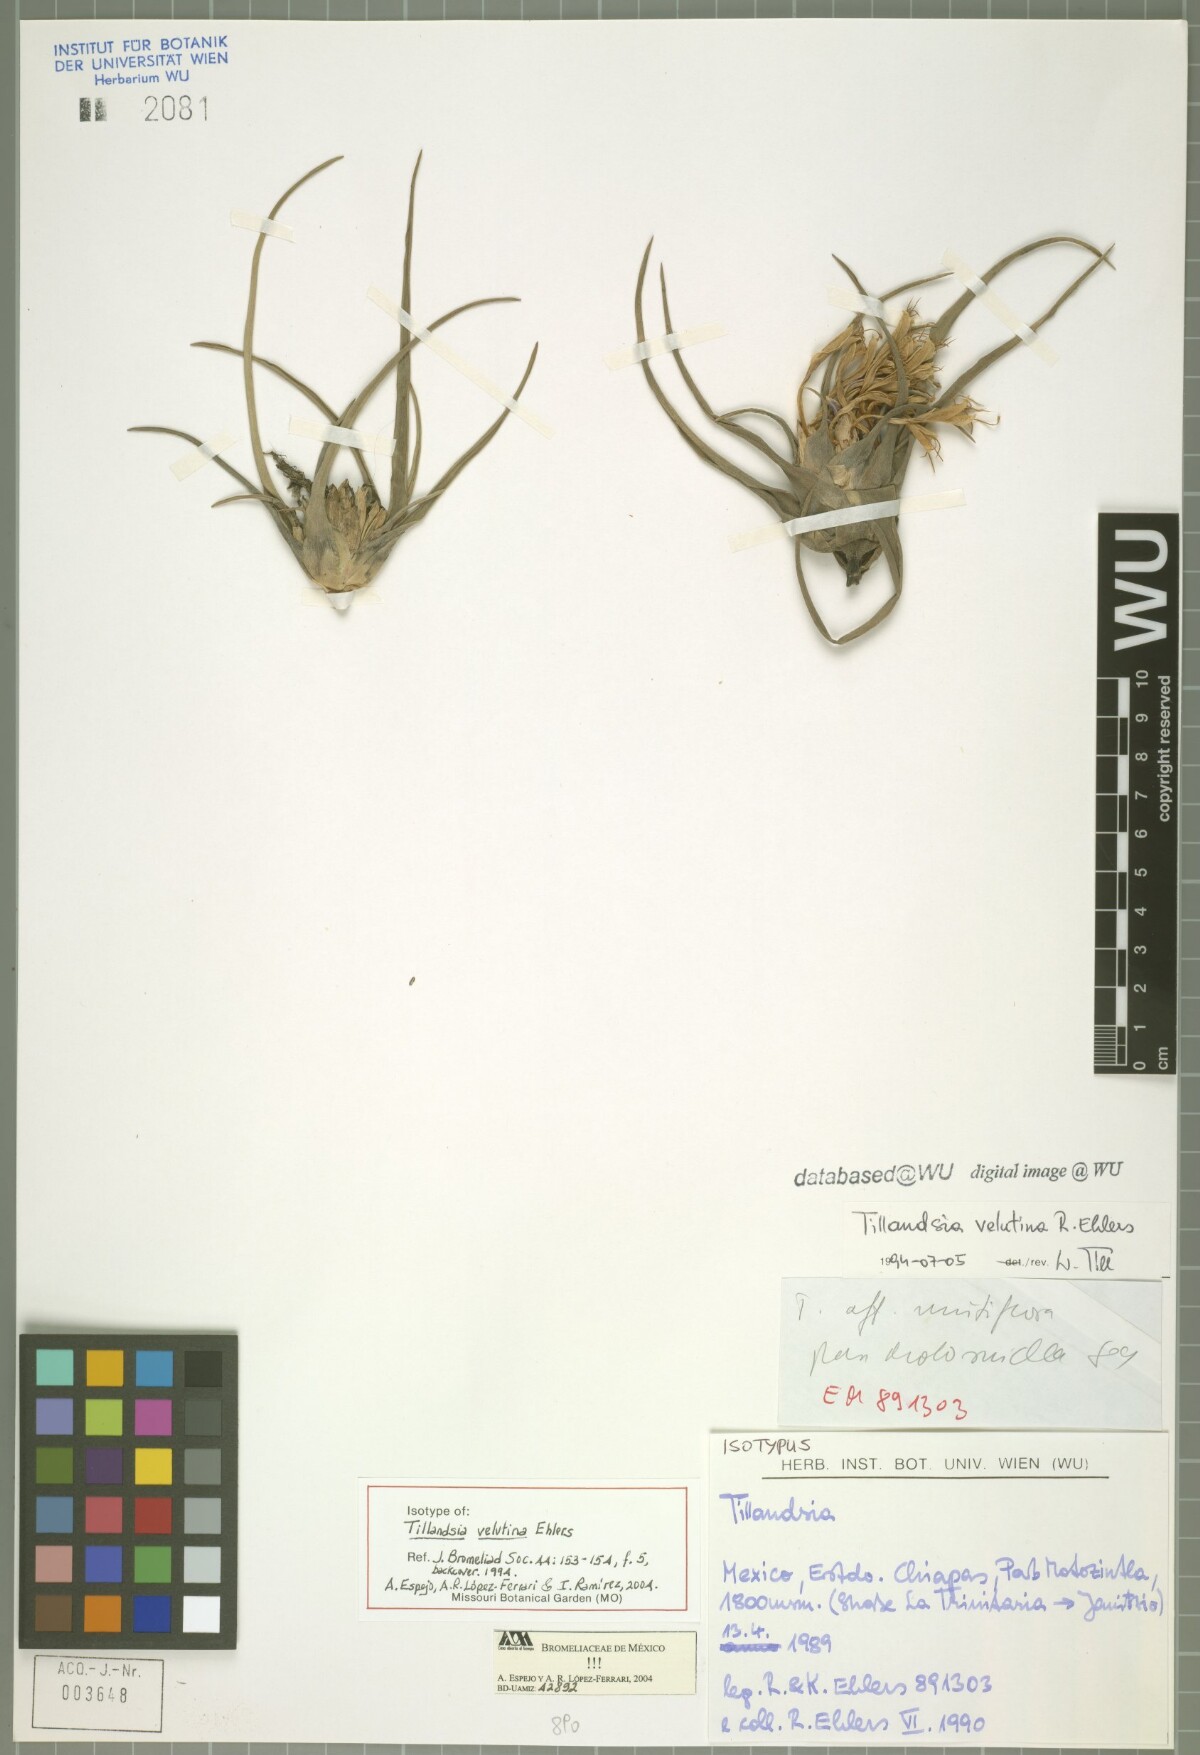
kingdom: Plantae
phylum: Tracheophyta
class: Liliopsida
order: Poales
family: Bromeliaceae
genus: Tillandsia
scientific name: Tillandsia velutina
